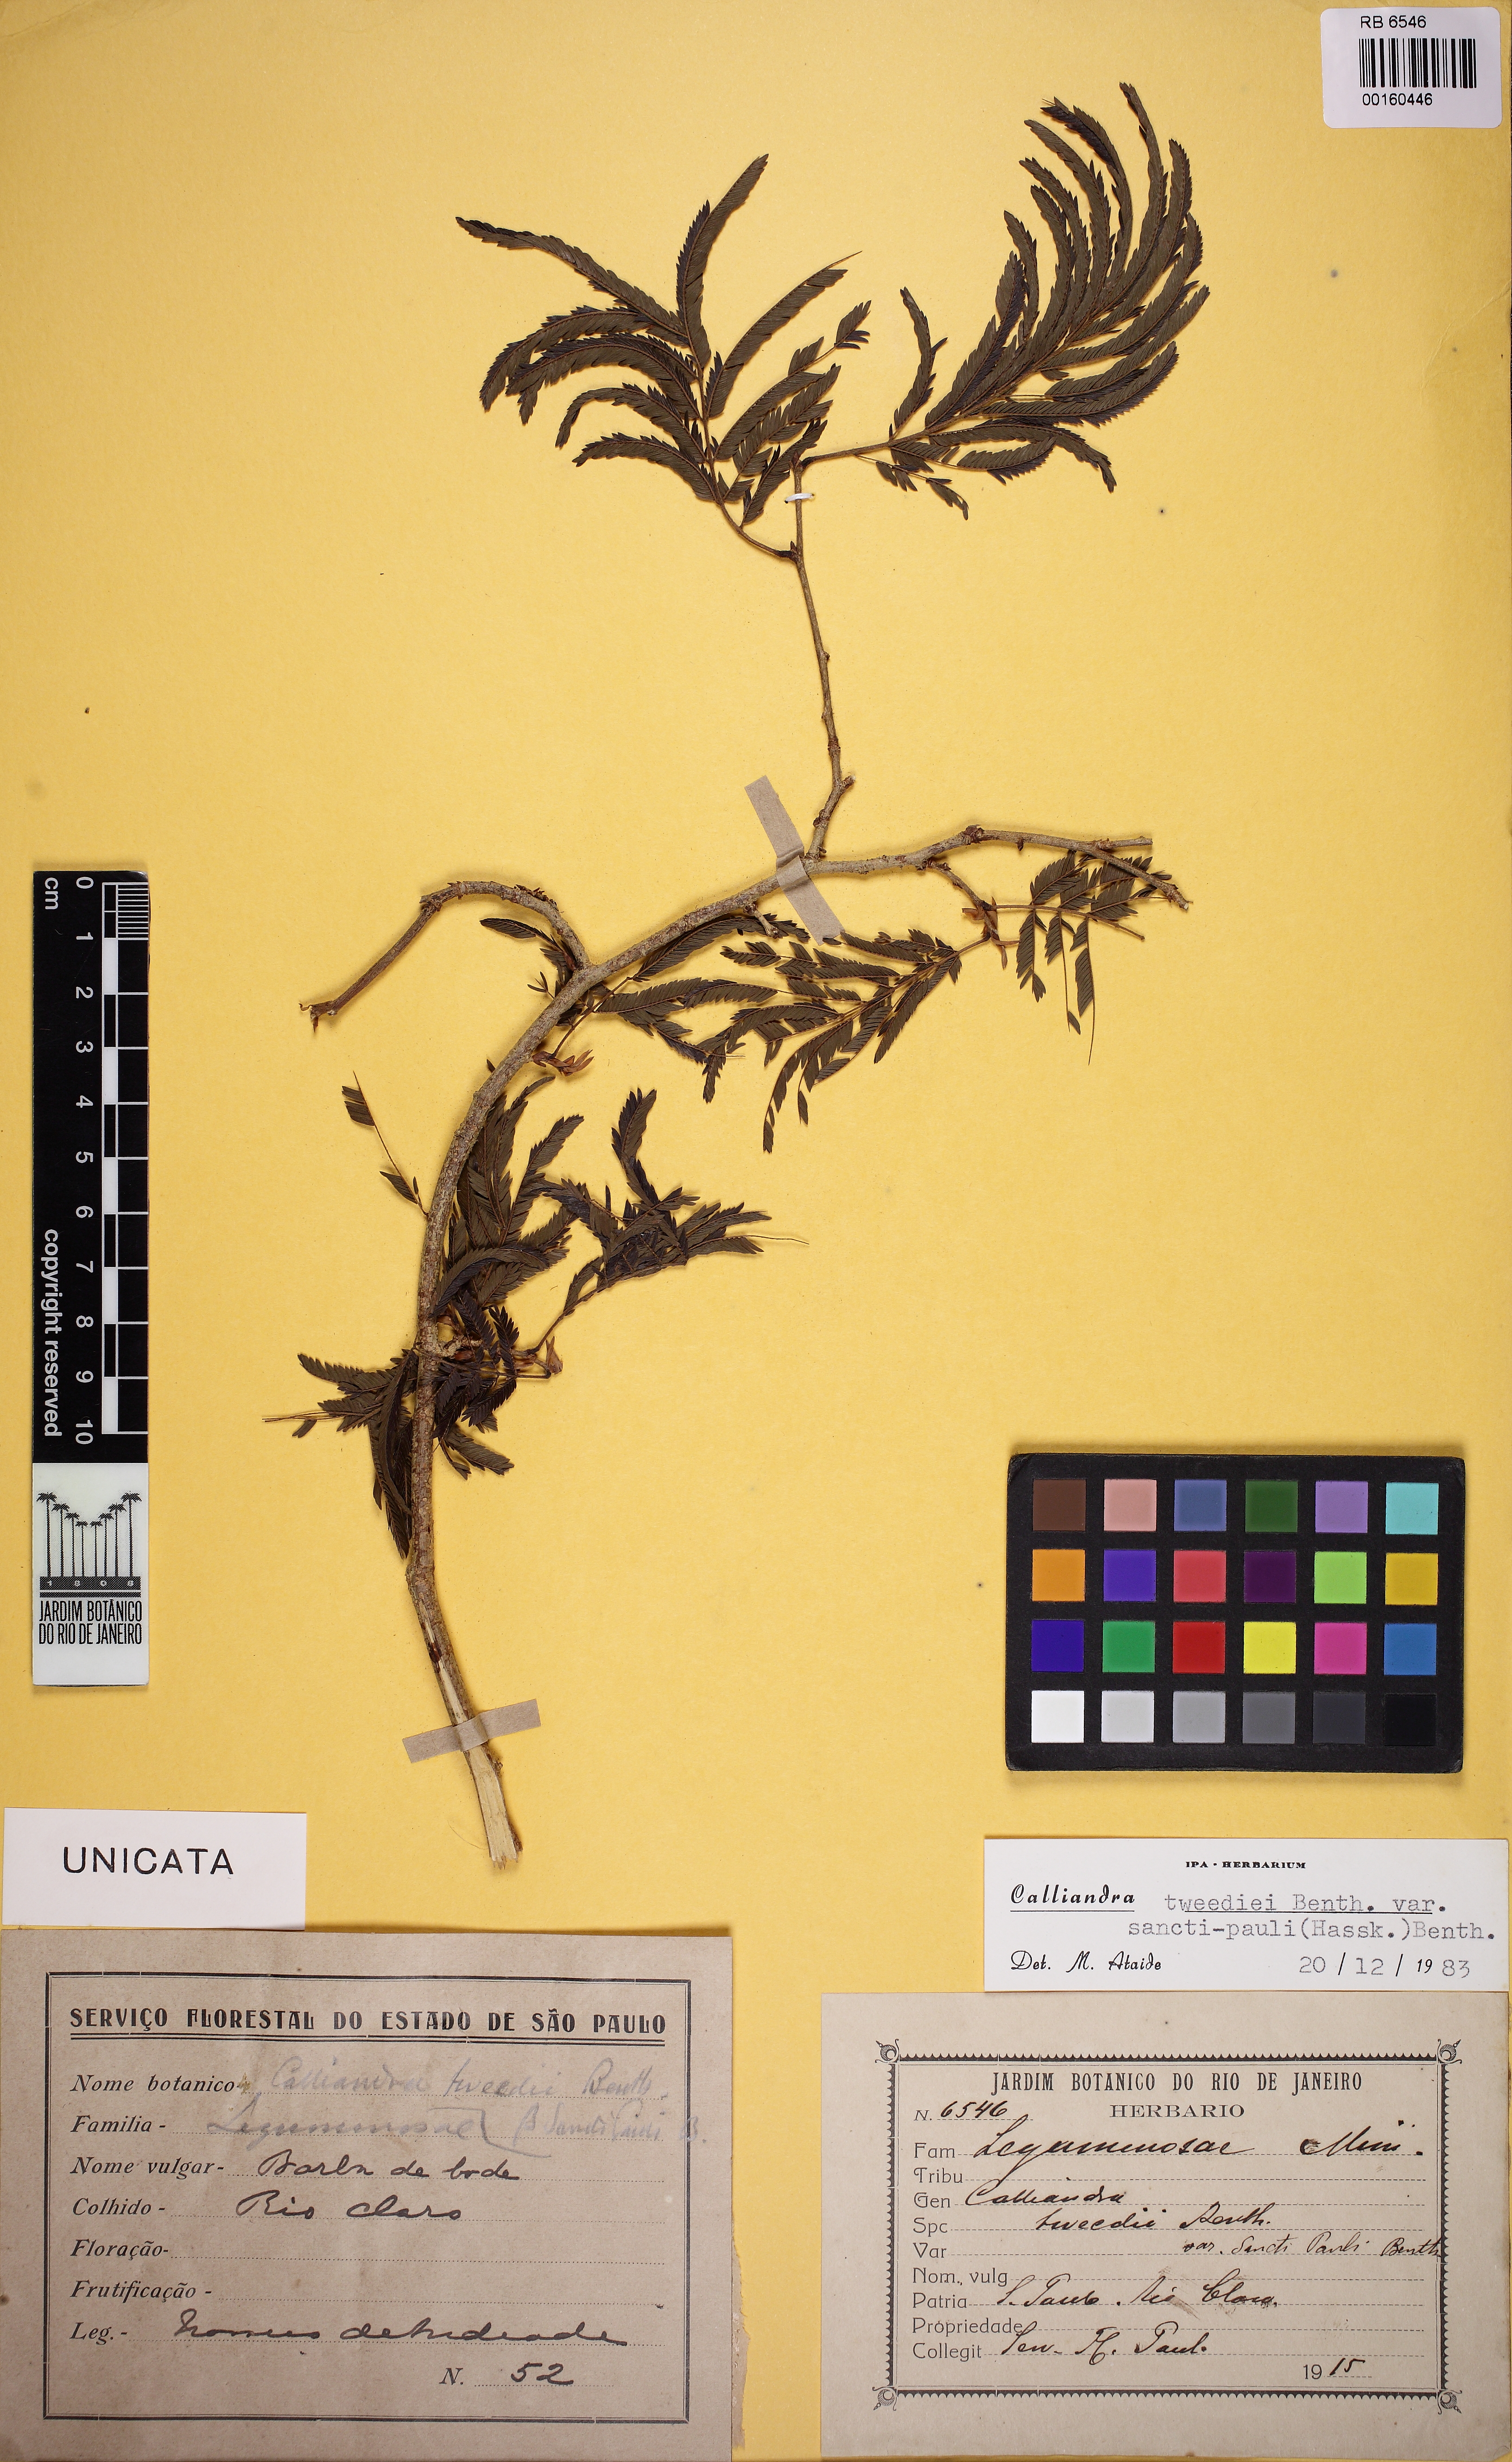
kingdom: Plantae
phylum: Tracheophyta
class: Magnoliopsida
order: Fabales
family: Fabaceae
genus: Calliandra
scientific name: Calliandra
